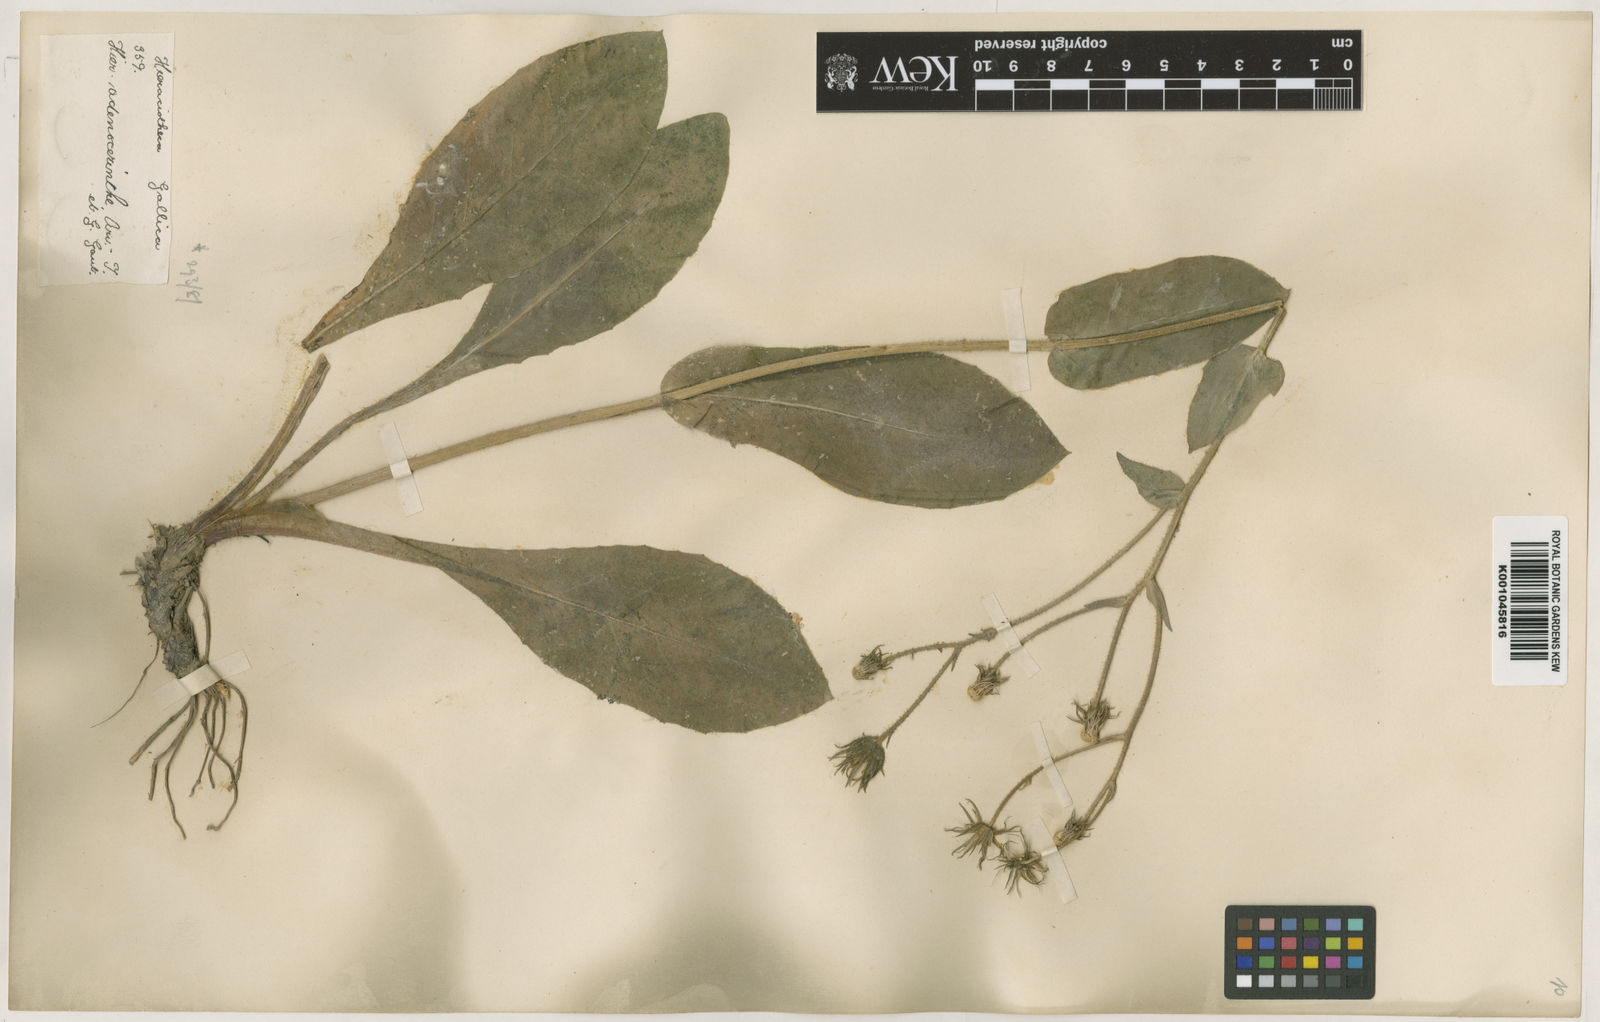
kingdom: Plantae
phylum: Tracheophyta
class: Magnoliopsida
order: Asterales
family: Asteraceae
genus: Hieracium
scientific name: Hieracium cordatum
